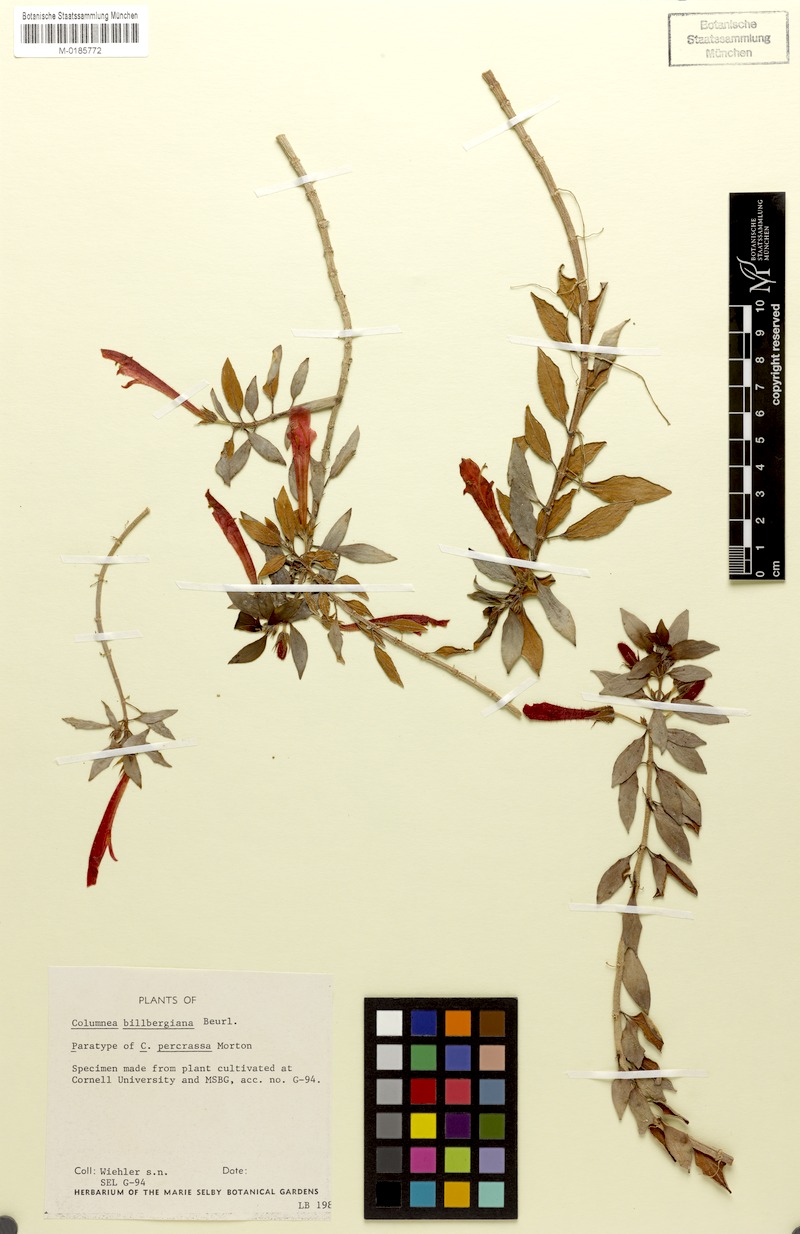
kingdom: Plantae
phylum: Tracheophyta
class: Magnoliopsida
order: Lamiales
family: Gesneriaceae
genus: Columnea
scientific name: Columnea billbergiana
